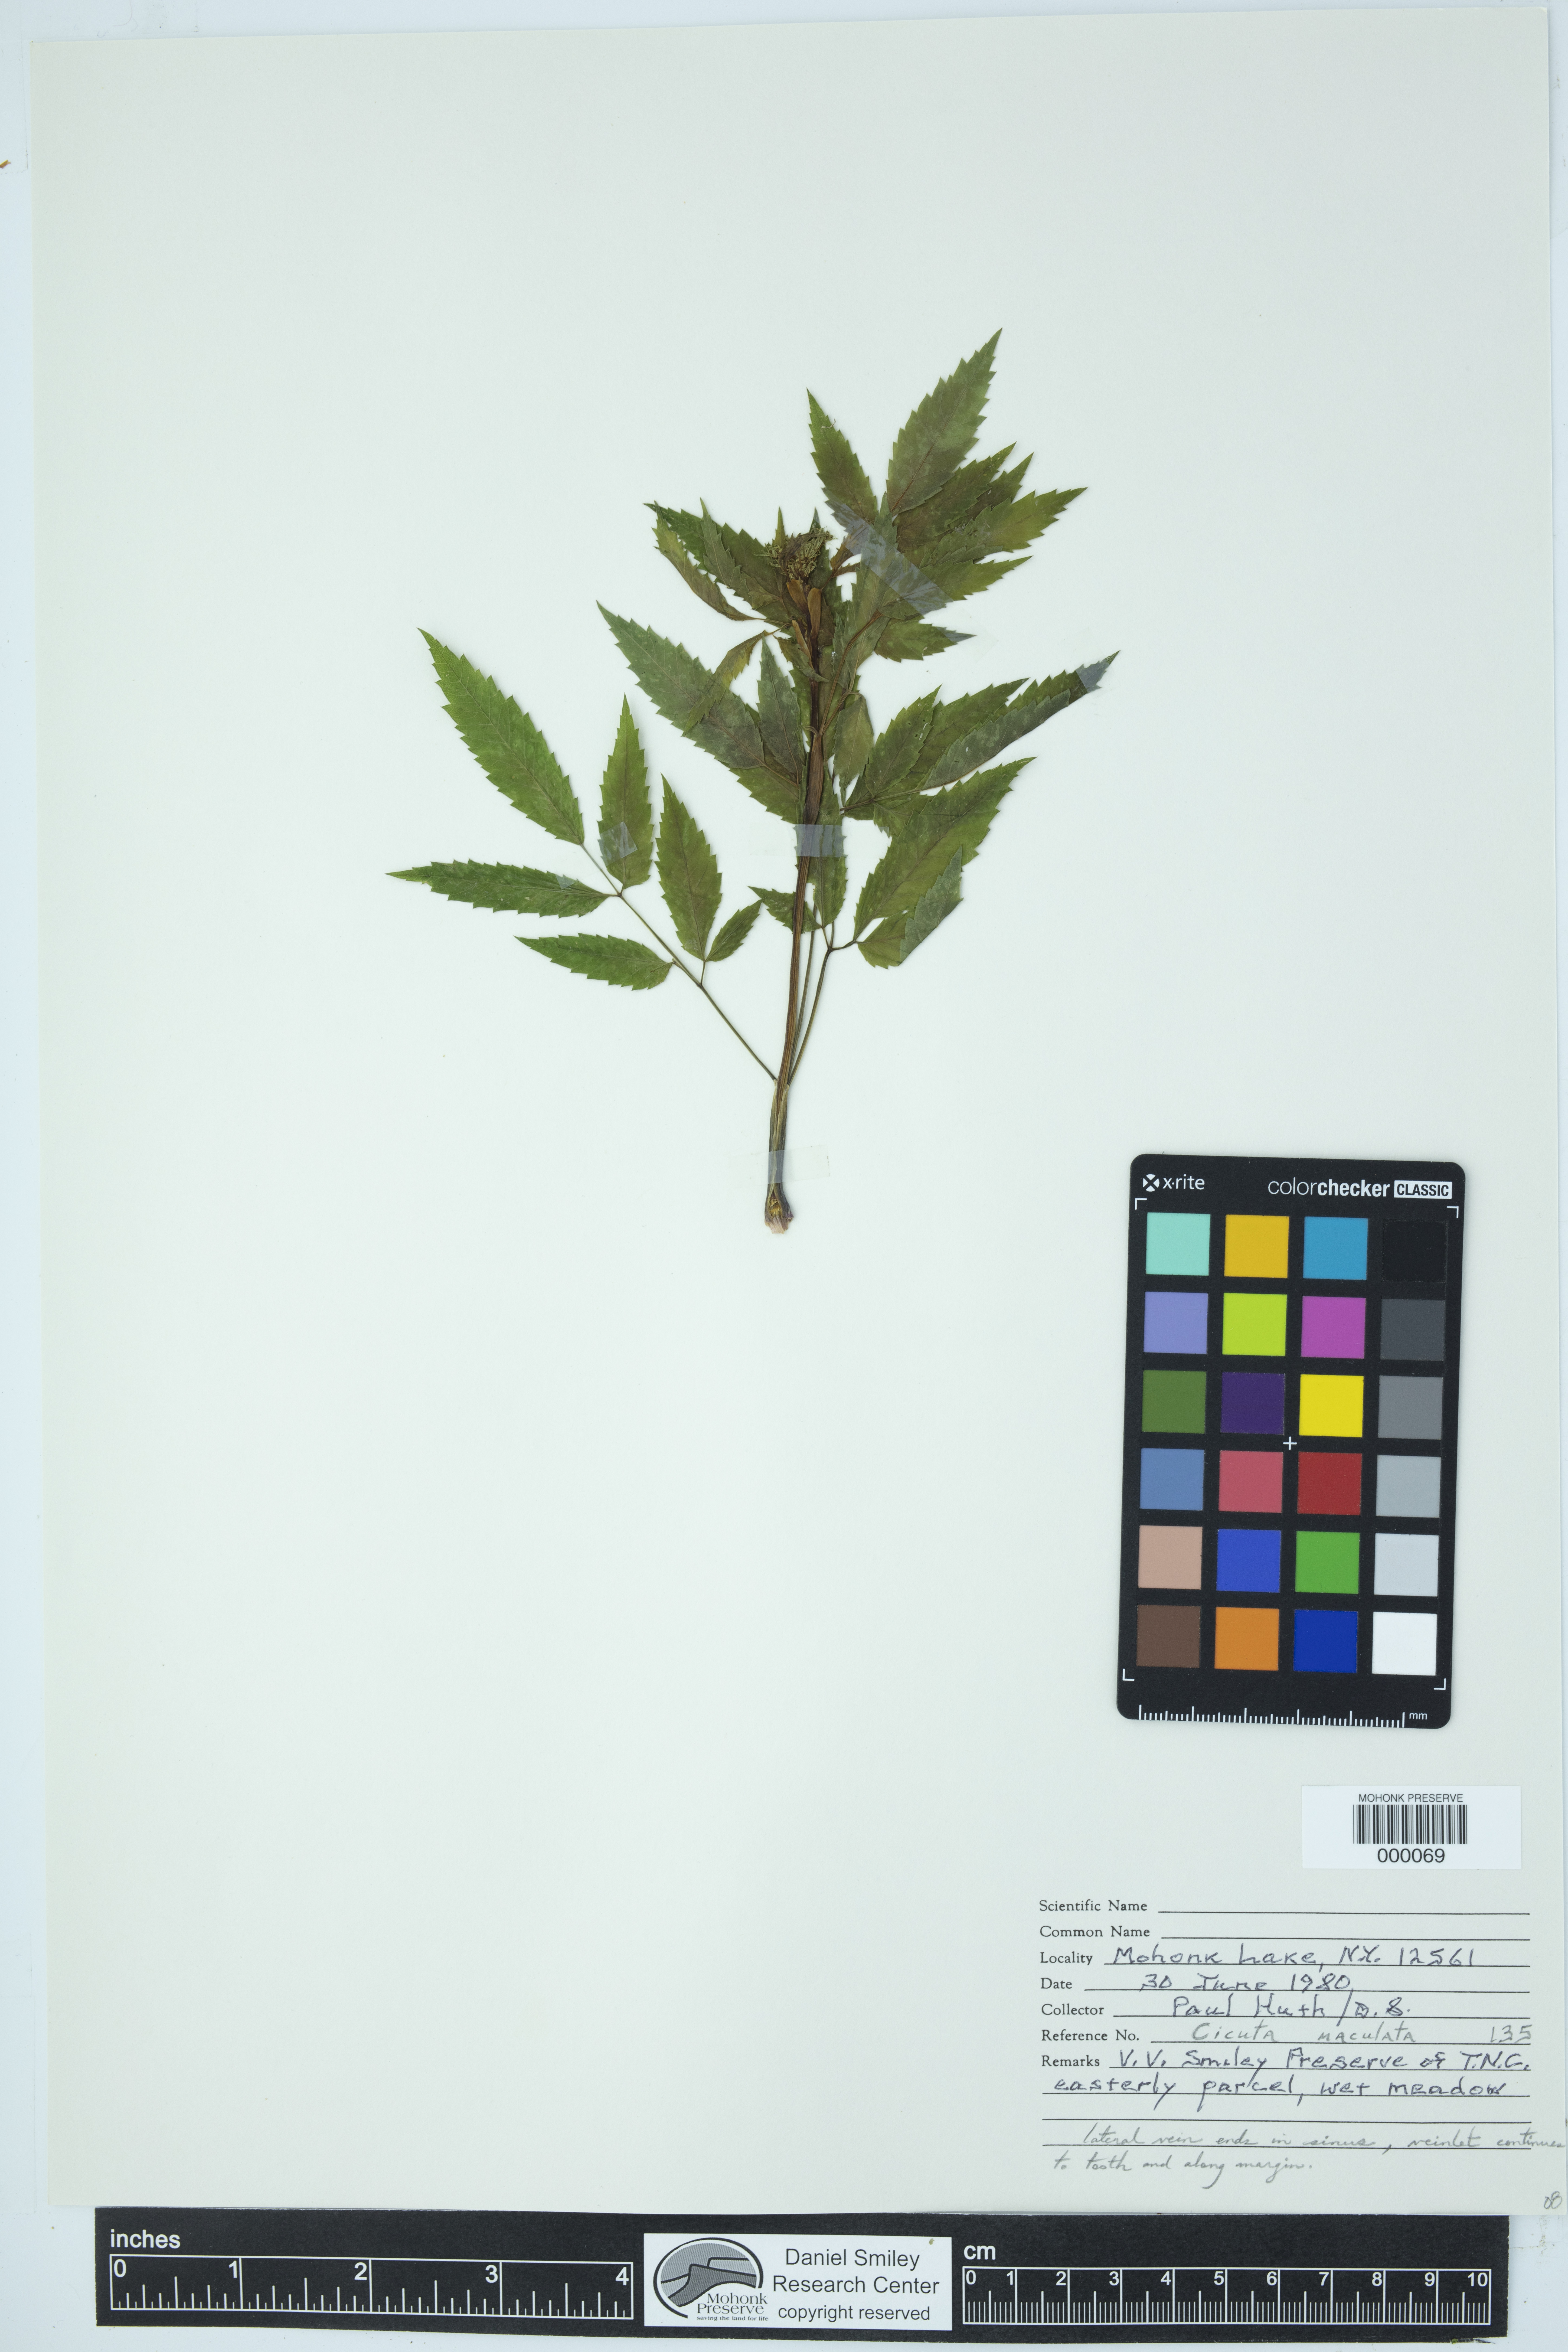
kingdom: Plantae
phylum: Tracheophyta
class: Magnoliopsida
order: Apiales
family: Apiaceae
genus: Cicuta
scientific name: Cicuta maculata
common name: Spotted cowbane
